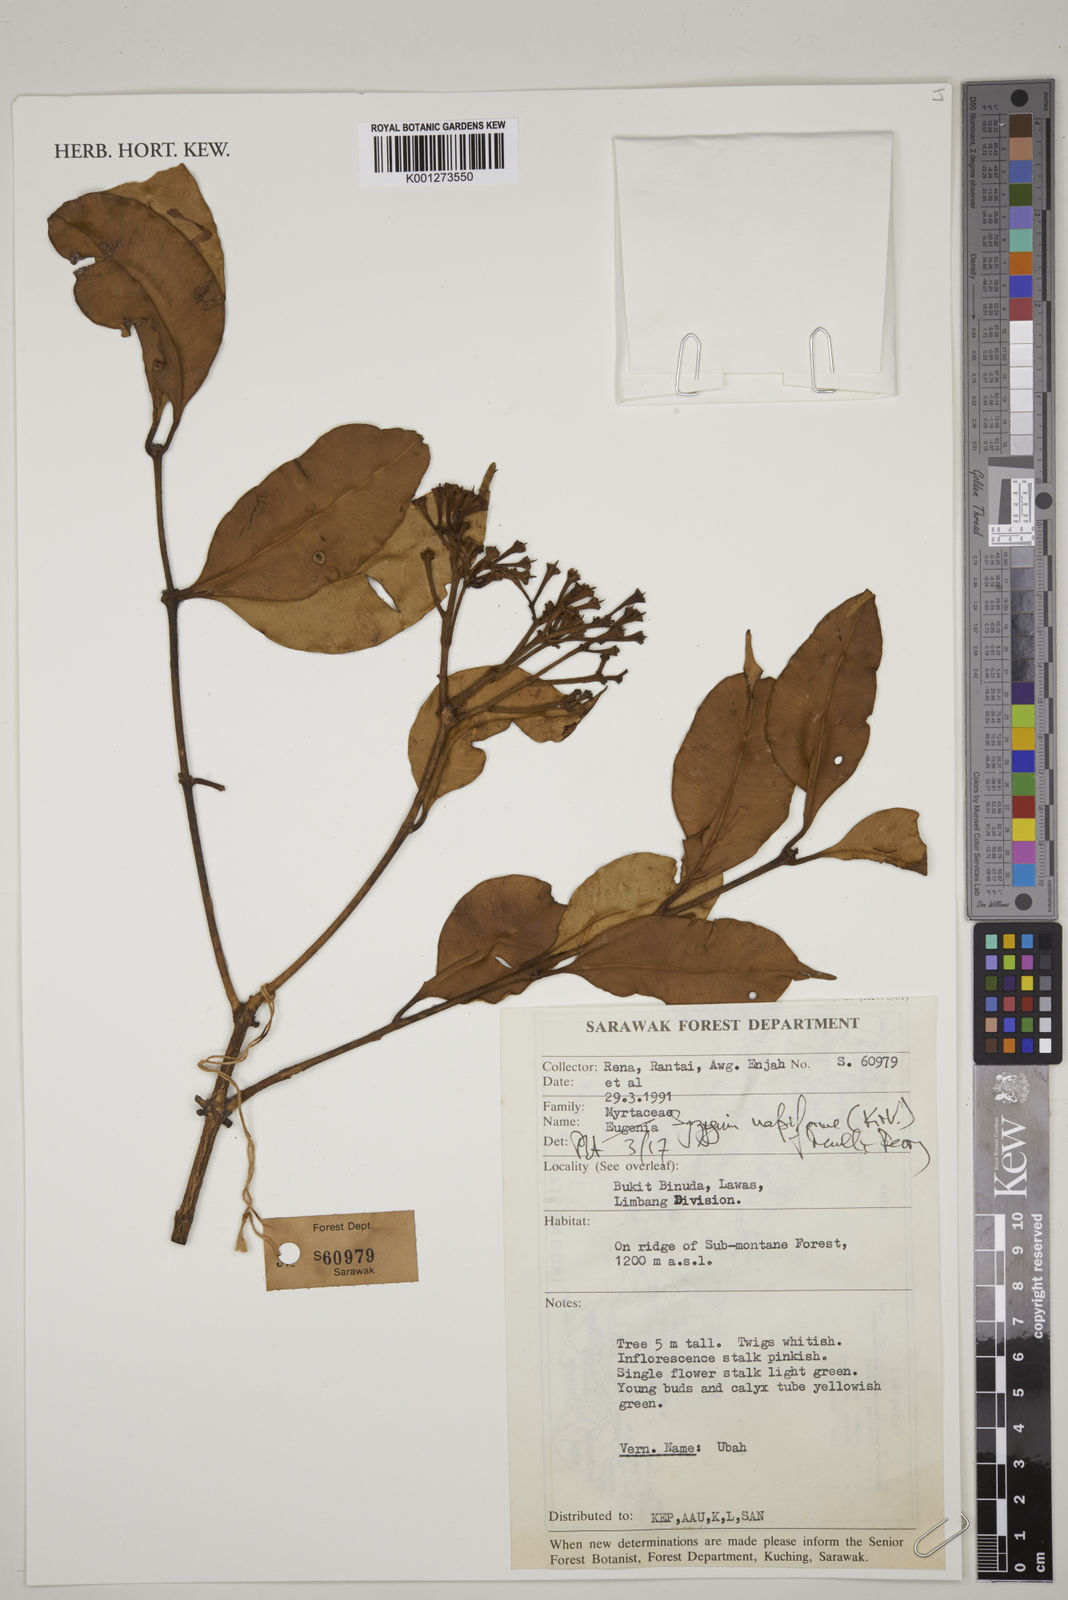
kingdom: Plantae
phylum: Tracheophyta
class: Magnoliopsida
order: Myrtales
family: Myrtaceae
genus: Syzygium
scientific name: Syzygium napiforme
